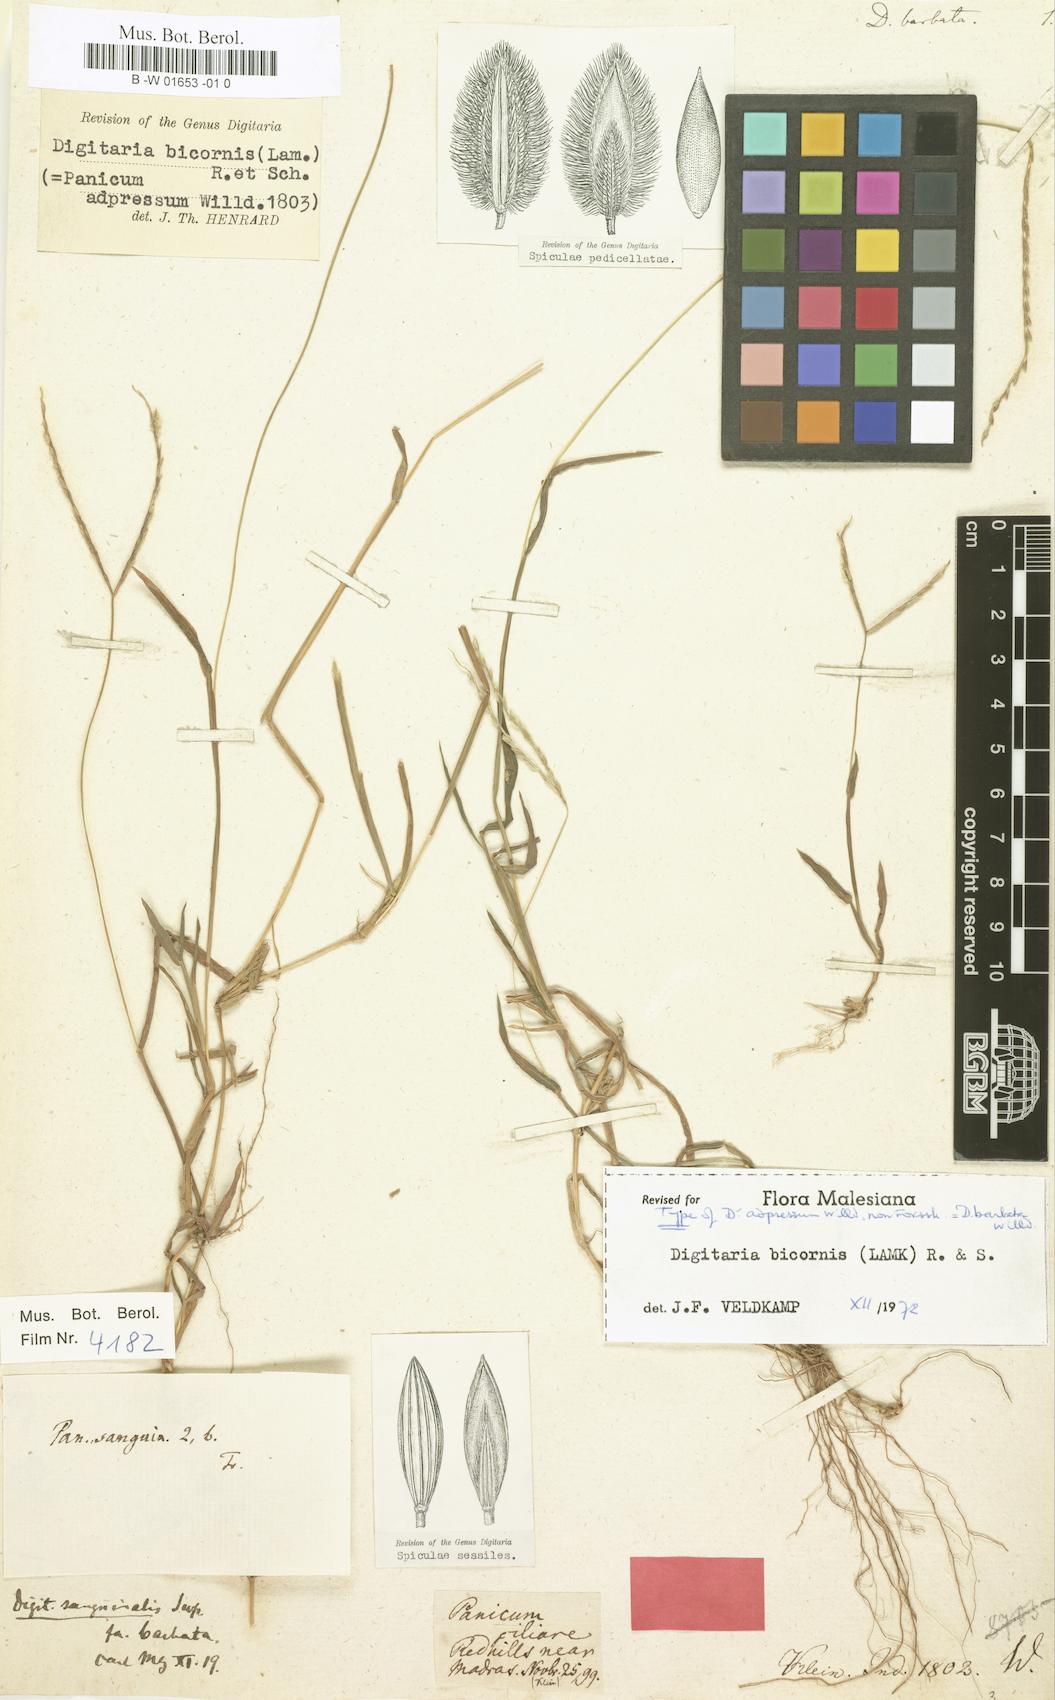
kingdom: Plantae
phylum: Tracheophyta
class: Liliopsida
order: Poales
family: Poaceae
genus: Digitaria
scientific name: Digitaria bicornis
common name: Asian crabgrass
